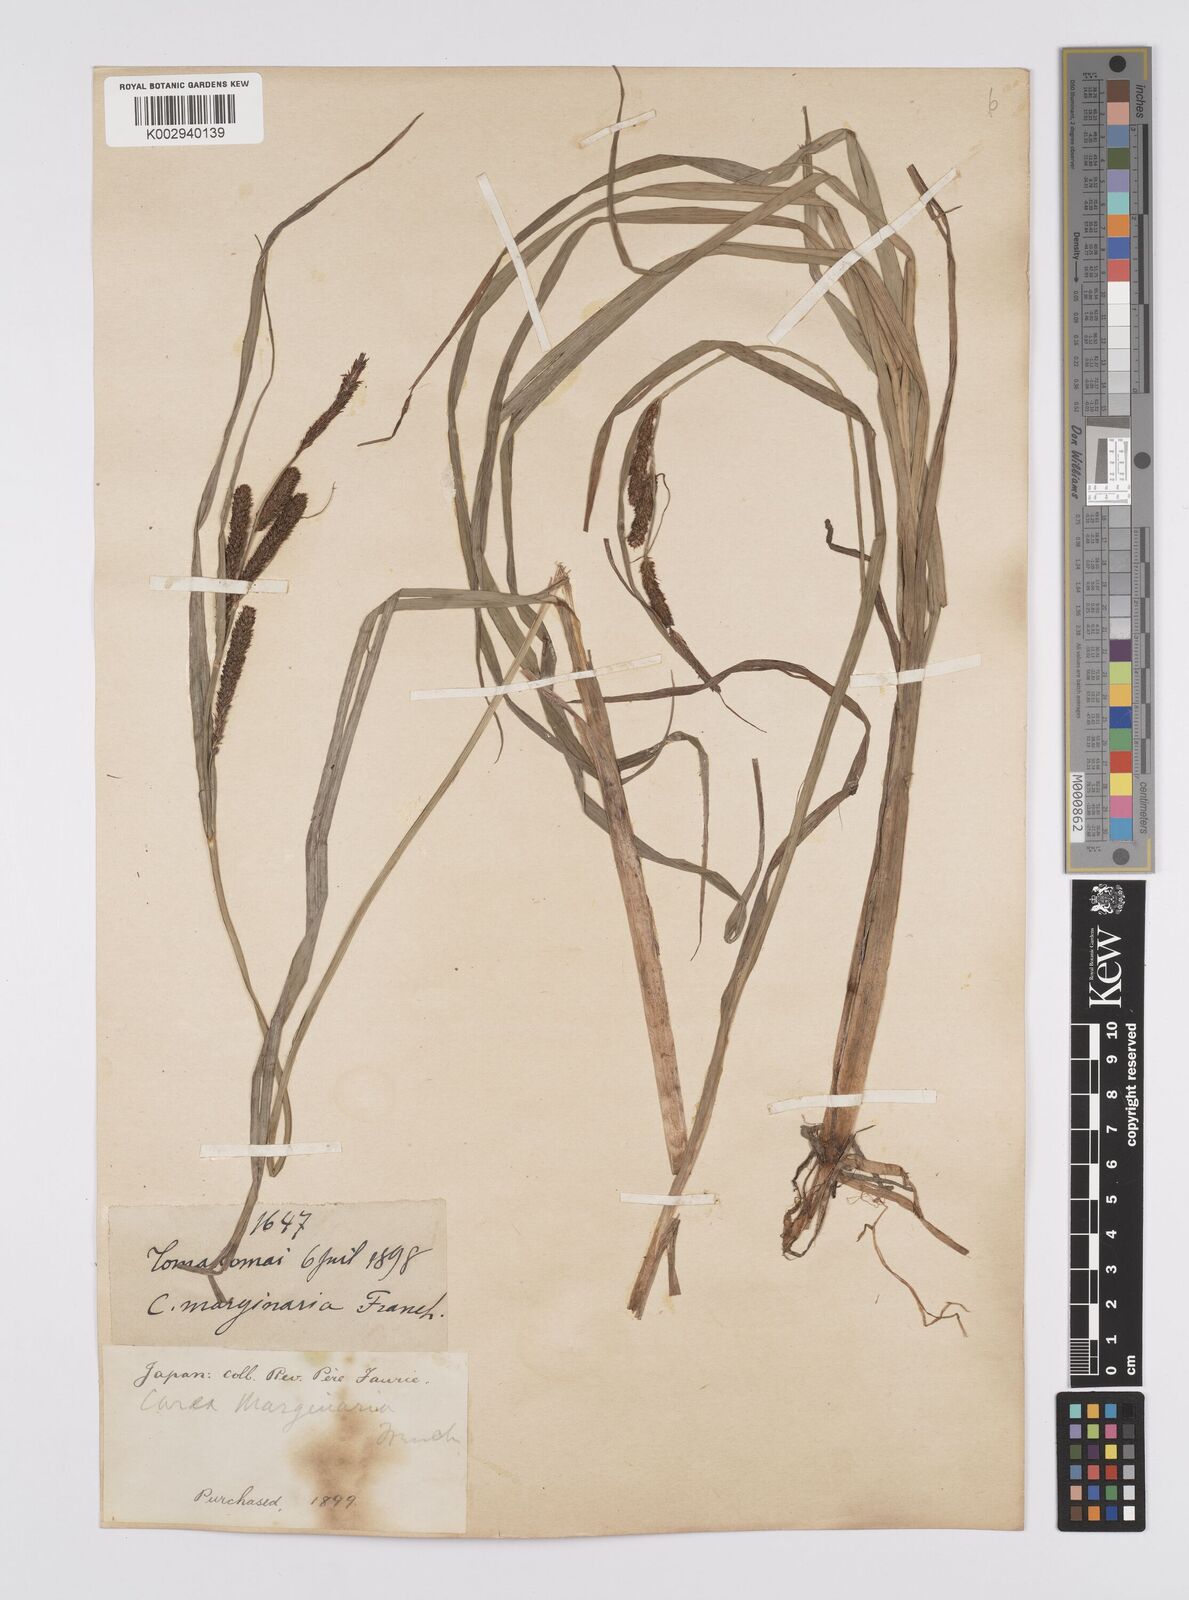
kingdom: Plantae
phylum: Tracheophyta
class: Liliopsida
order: Poales
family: Cyperaceae
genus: Carex
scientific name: Carex cruenta
